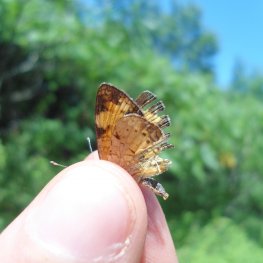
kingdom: Animalia
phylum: Arthropoda
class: Insecta
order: Lepidoptera
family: Nymphalidae
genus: Phyciodes
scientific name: Phyciodes tharos
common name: Pearl Crescent
